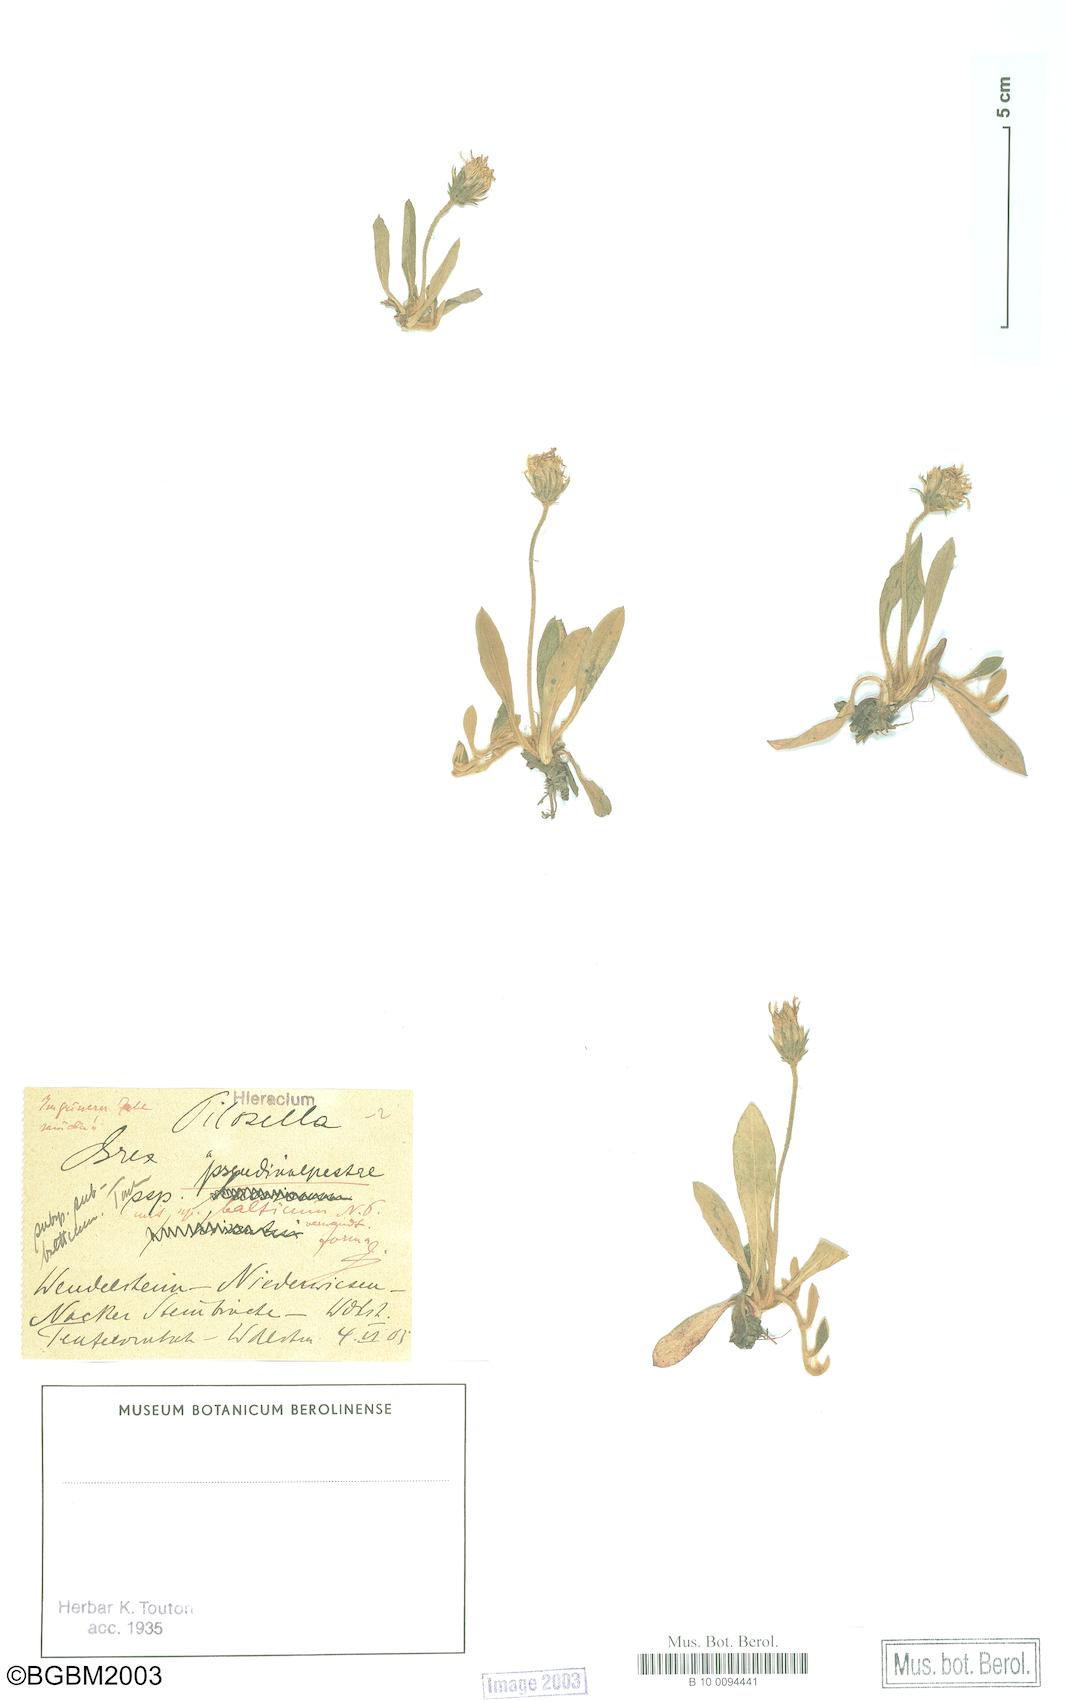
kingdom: Plantae
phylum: Tracheophyta
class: Magnoliopsida
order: Asterales
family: Asteraceae
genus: Pilosella
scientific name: Pilosella officinarum
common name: Mouse-ear hawkweed
